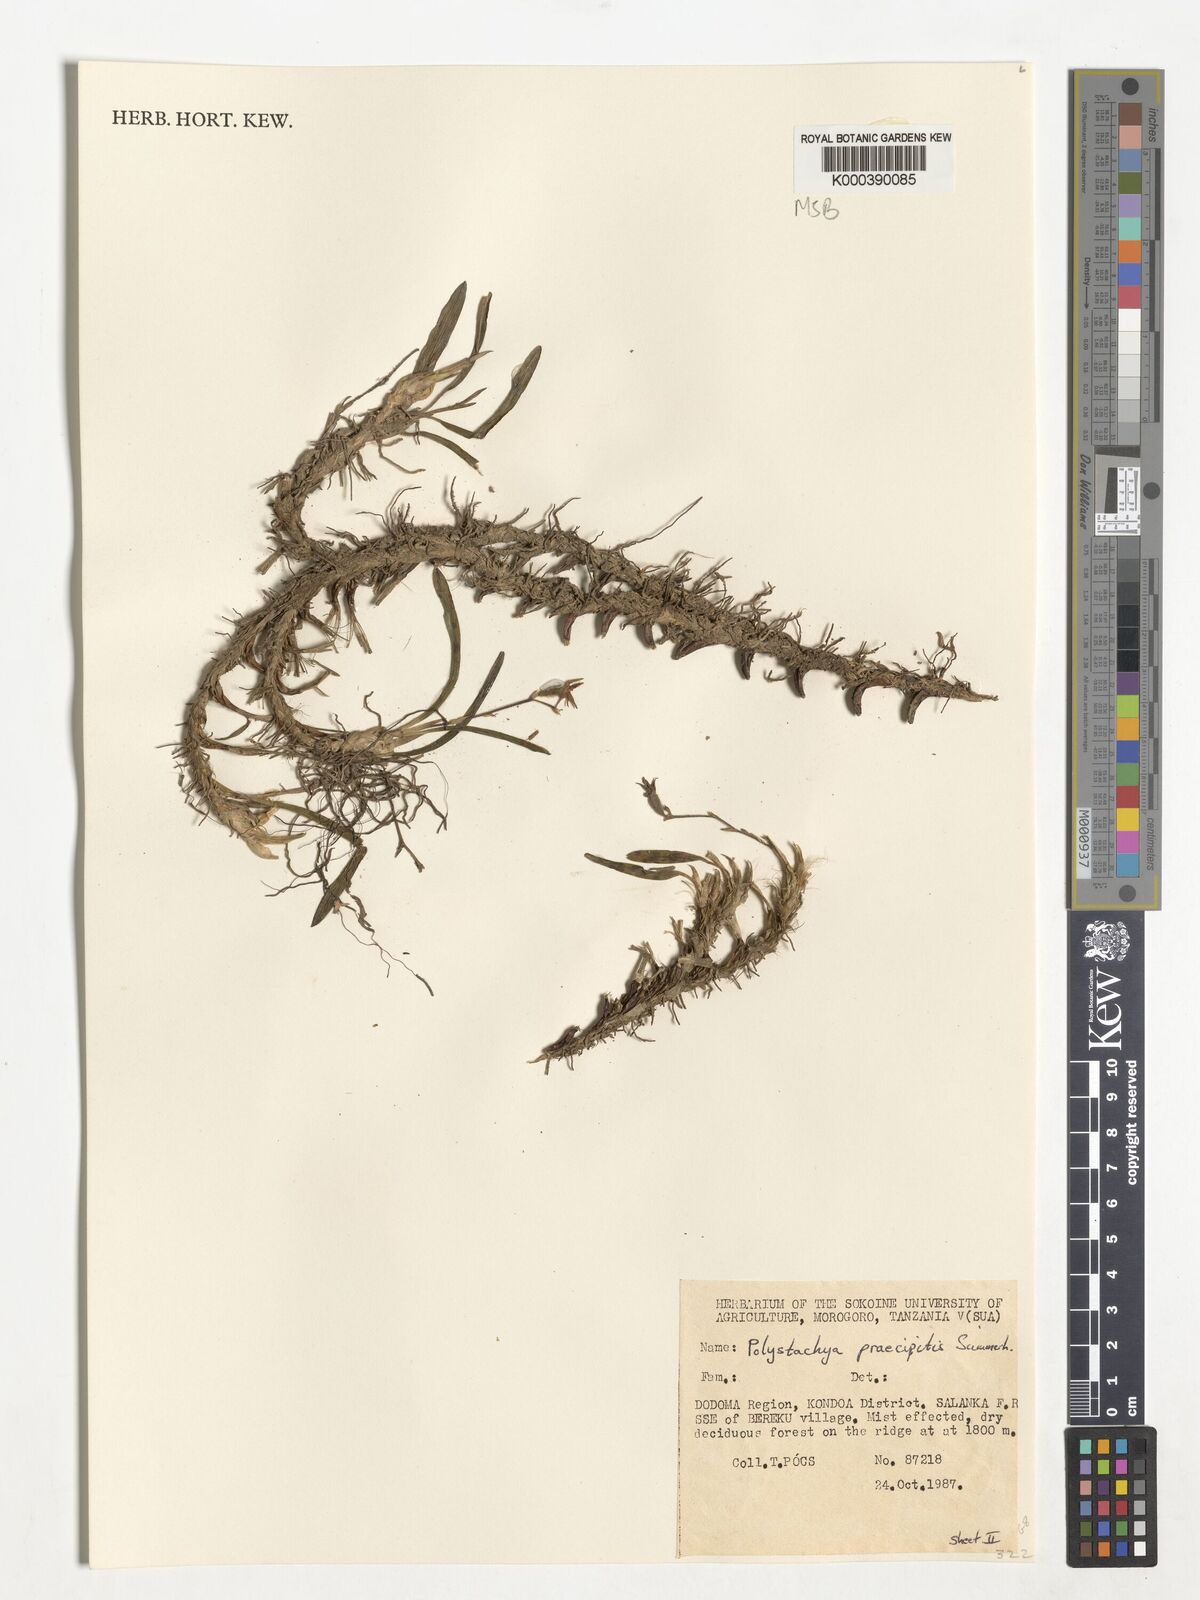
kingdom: Plantae
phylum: Tracheophyta
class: Liliopsida
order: Asparagales
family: Orchidaceae
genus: Polystachya
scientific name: Polystachya praecipitis
